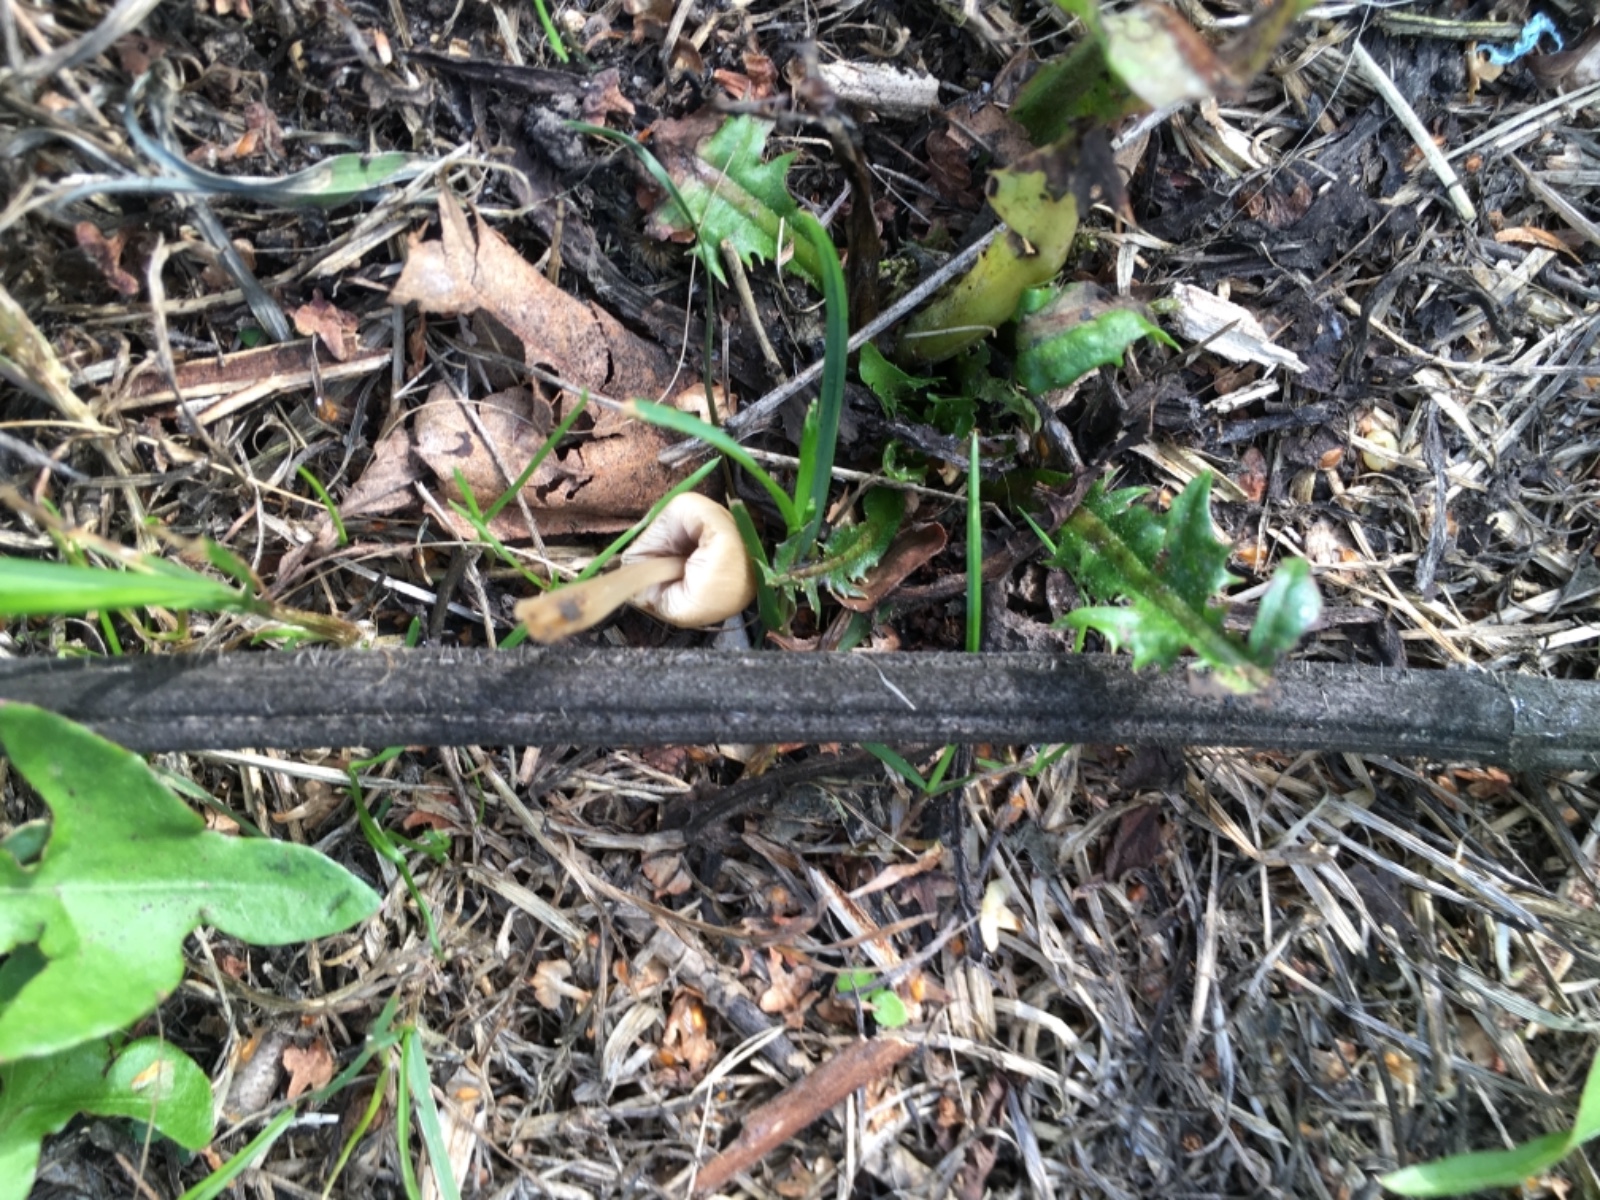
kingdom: Fungi
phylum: Basidiomycota
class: Agaricomycetes
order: Agaricales
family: Psathyrellaceae
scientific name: Psathyrellaceae
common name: mørkhatfamilien
